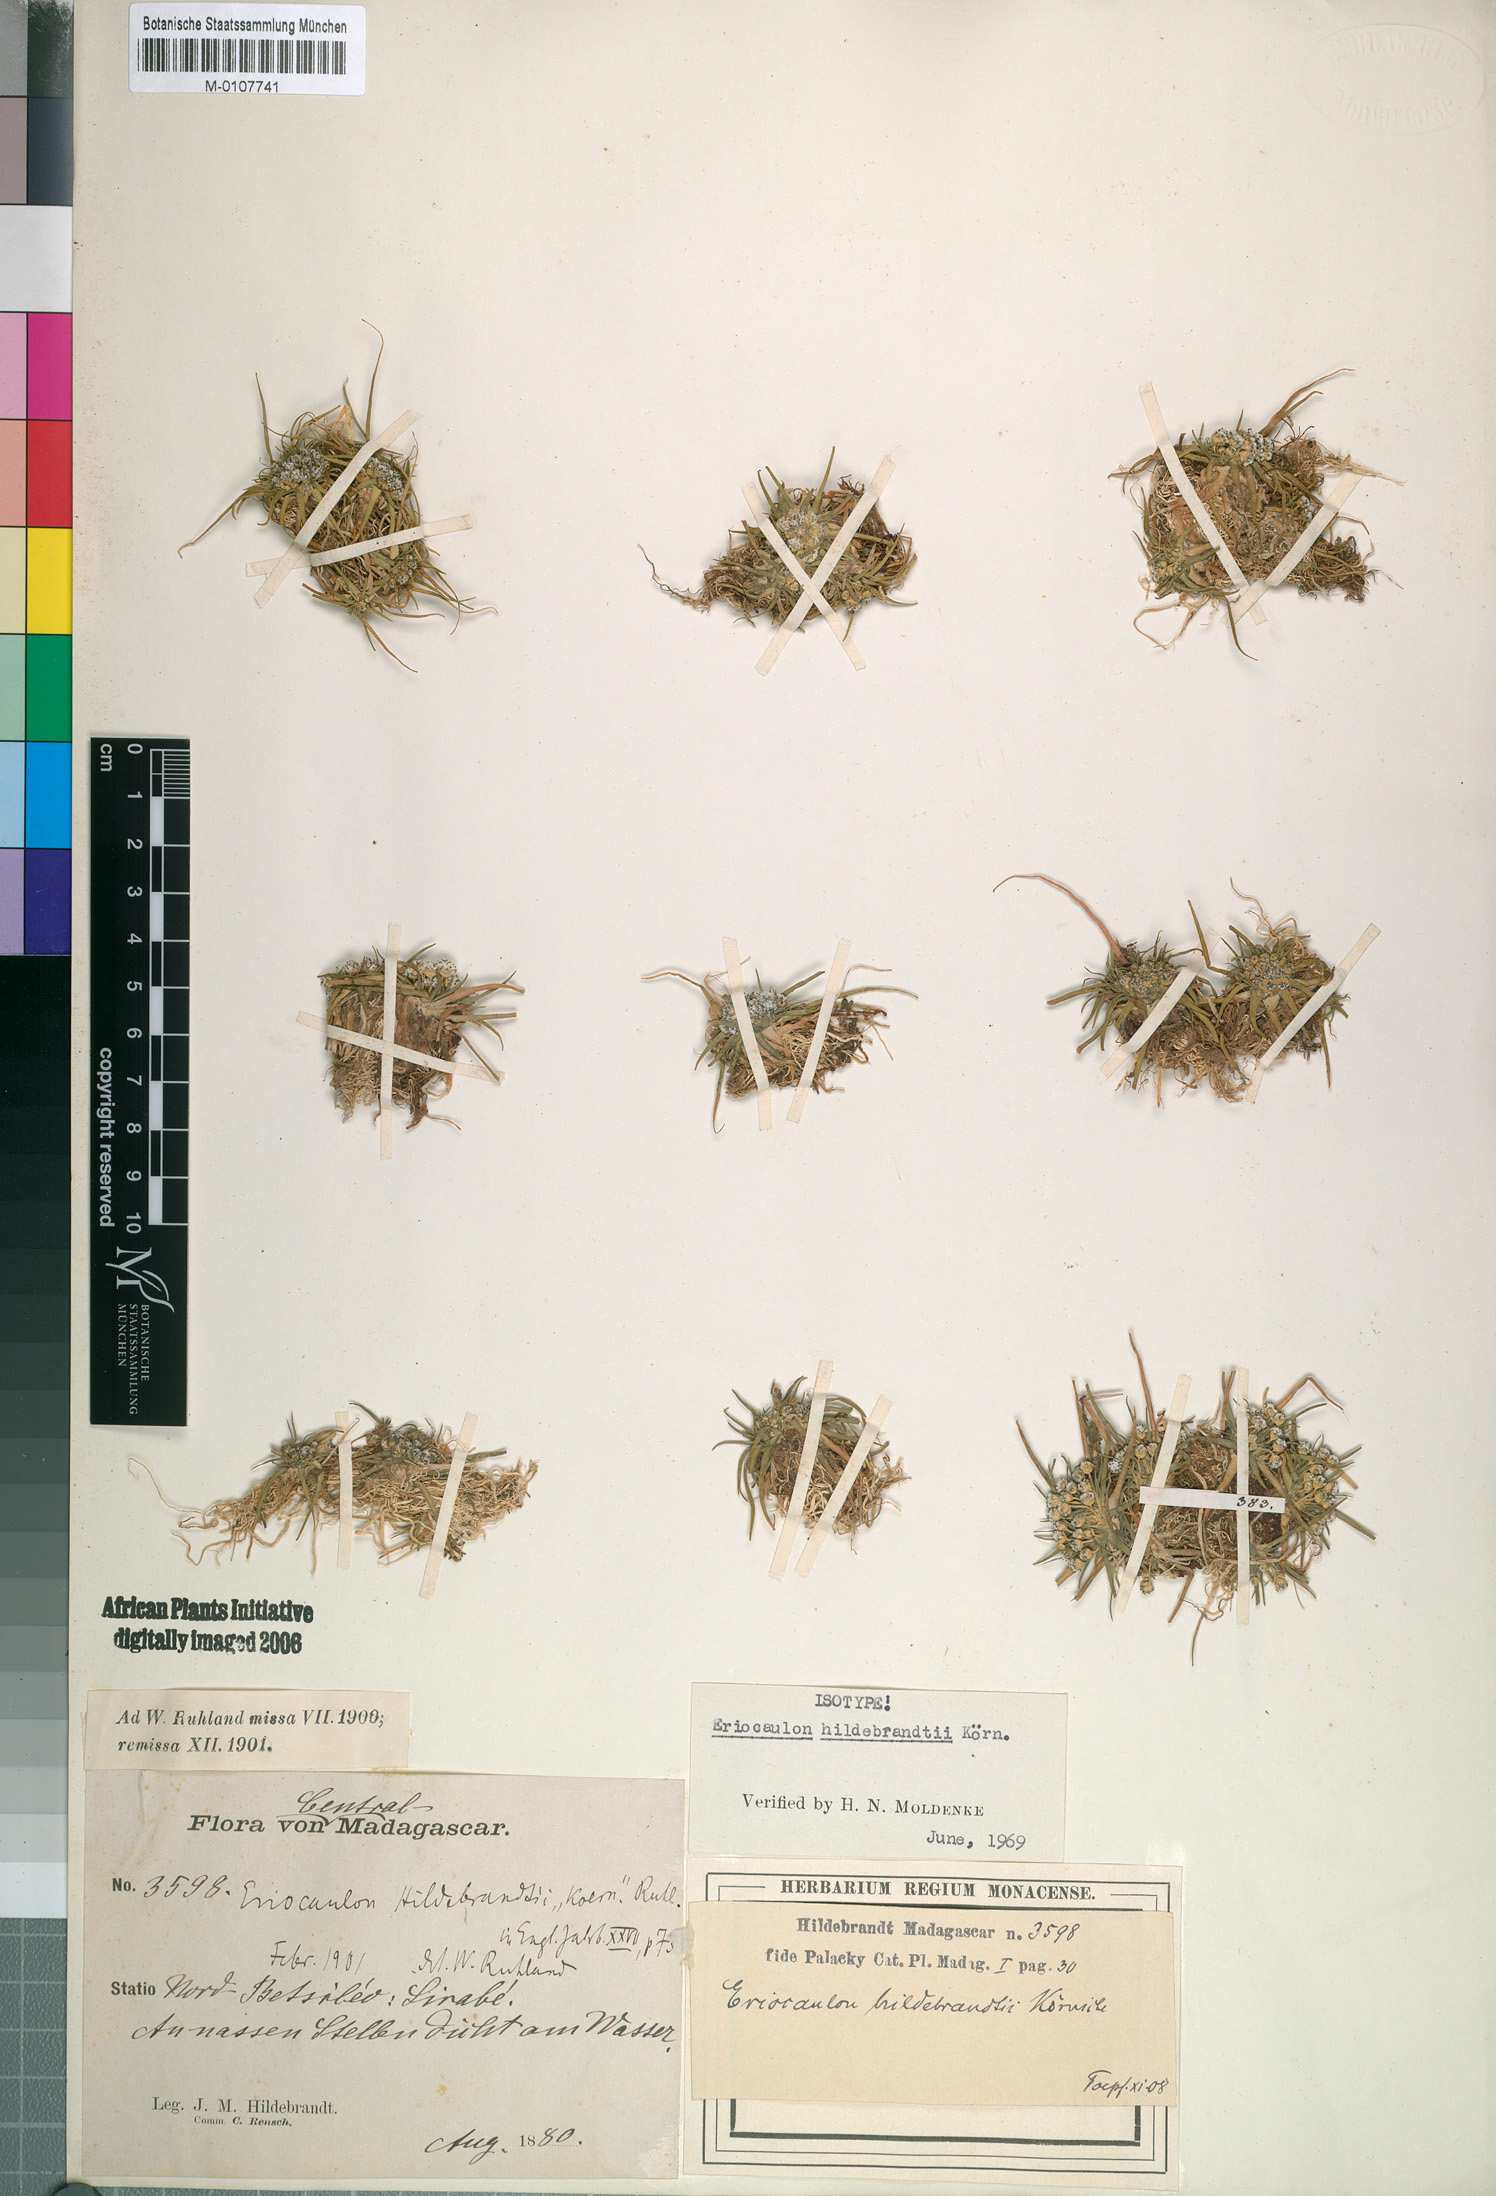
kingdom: Plantae
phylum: Tracheophyta
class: Liliopsida
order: Poales
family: Eriocaulaceae
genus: Eriocaulon
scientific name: Eriocaulon hildebrandtii
